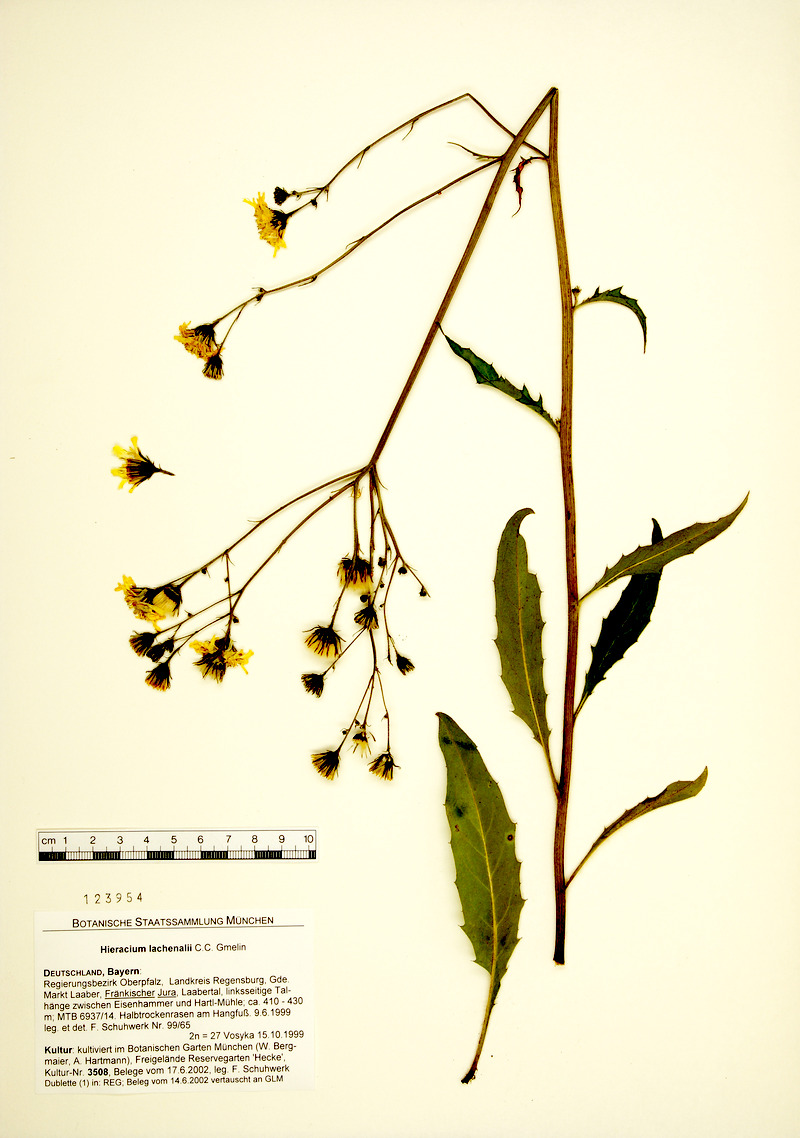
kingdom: Plantae
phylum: Tracheophyta
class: Magnoliopsida
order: Asterales
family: Asteraceae
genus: Hieracium
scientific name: Hieracium lachenalii
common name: Common hawkweed
